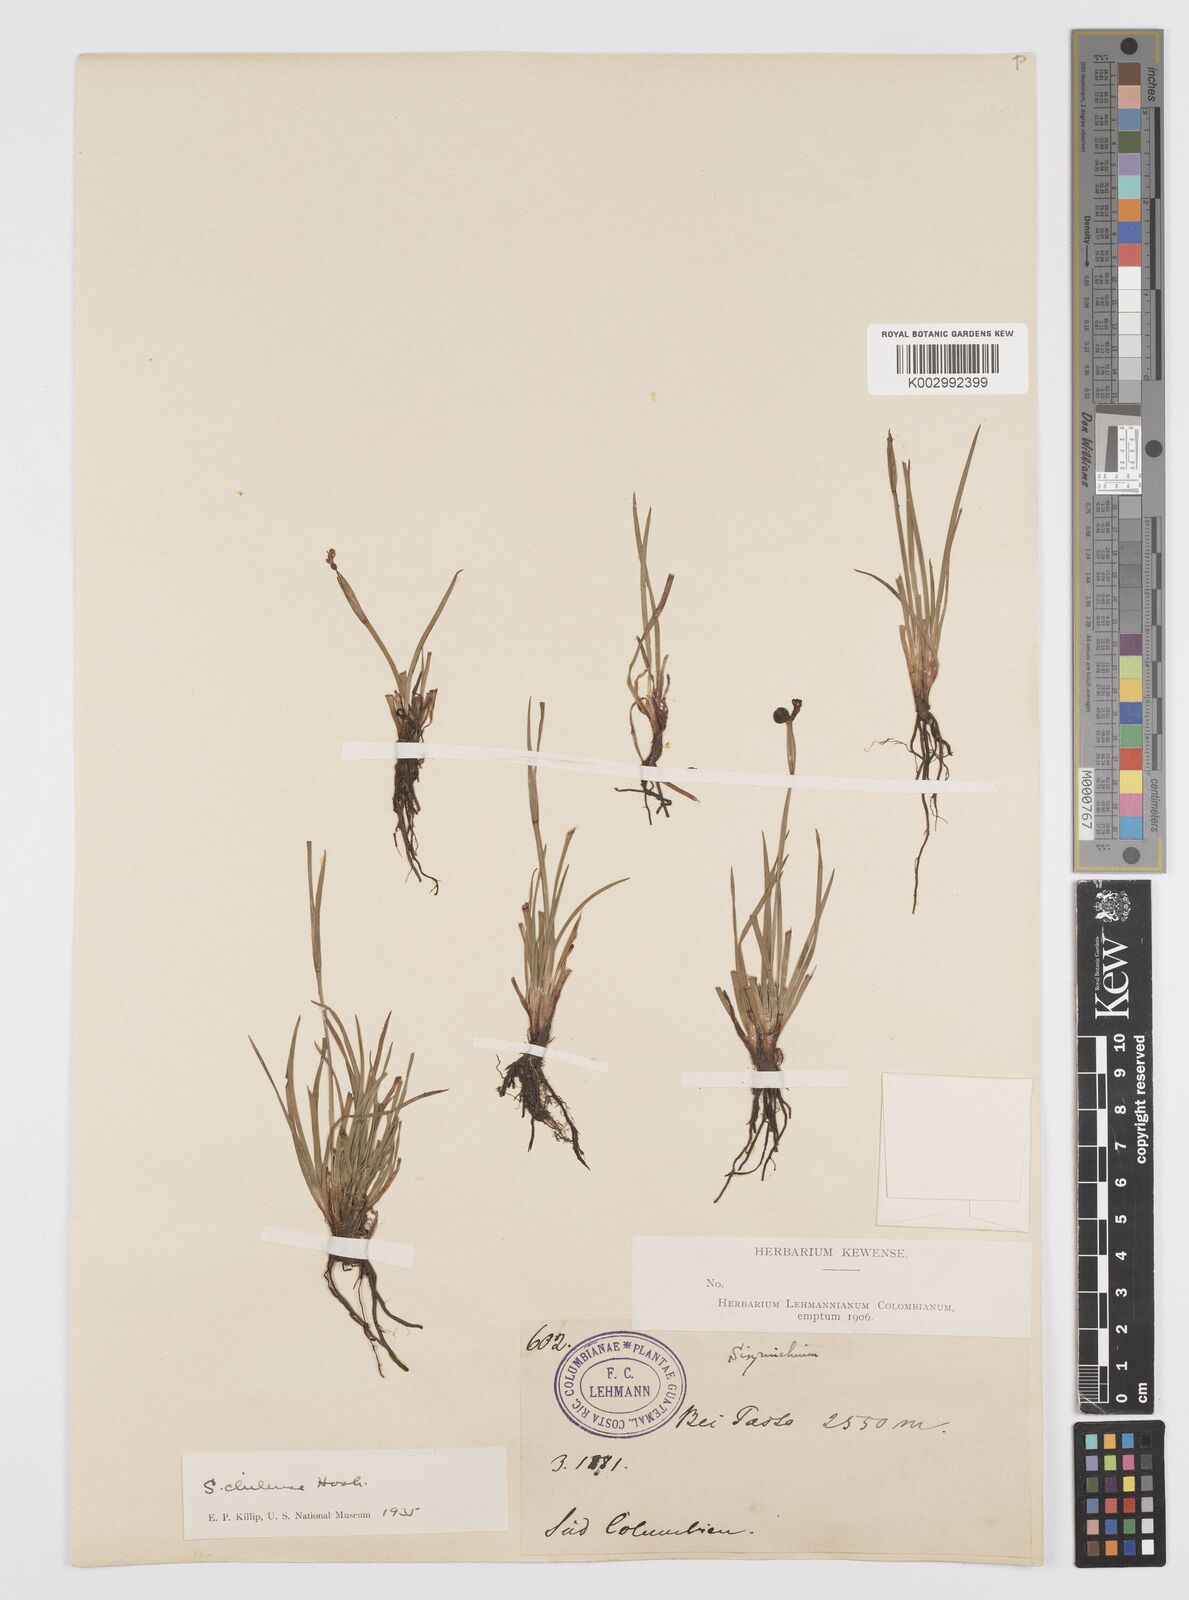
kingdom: Plantae
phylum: Tracheophyta
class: Liliopsida
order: Asparagales
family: Iridaceae
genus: Sisyrinchium
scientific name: Sisyrinchium chilense
